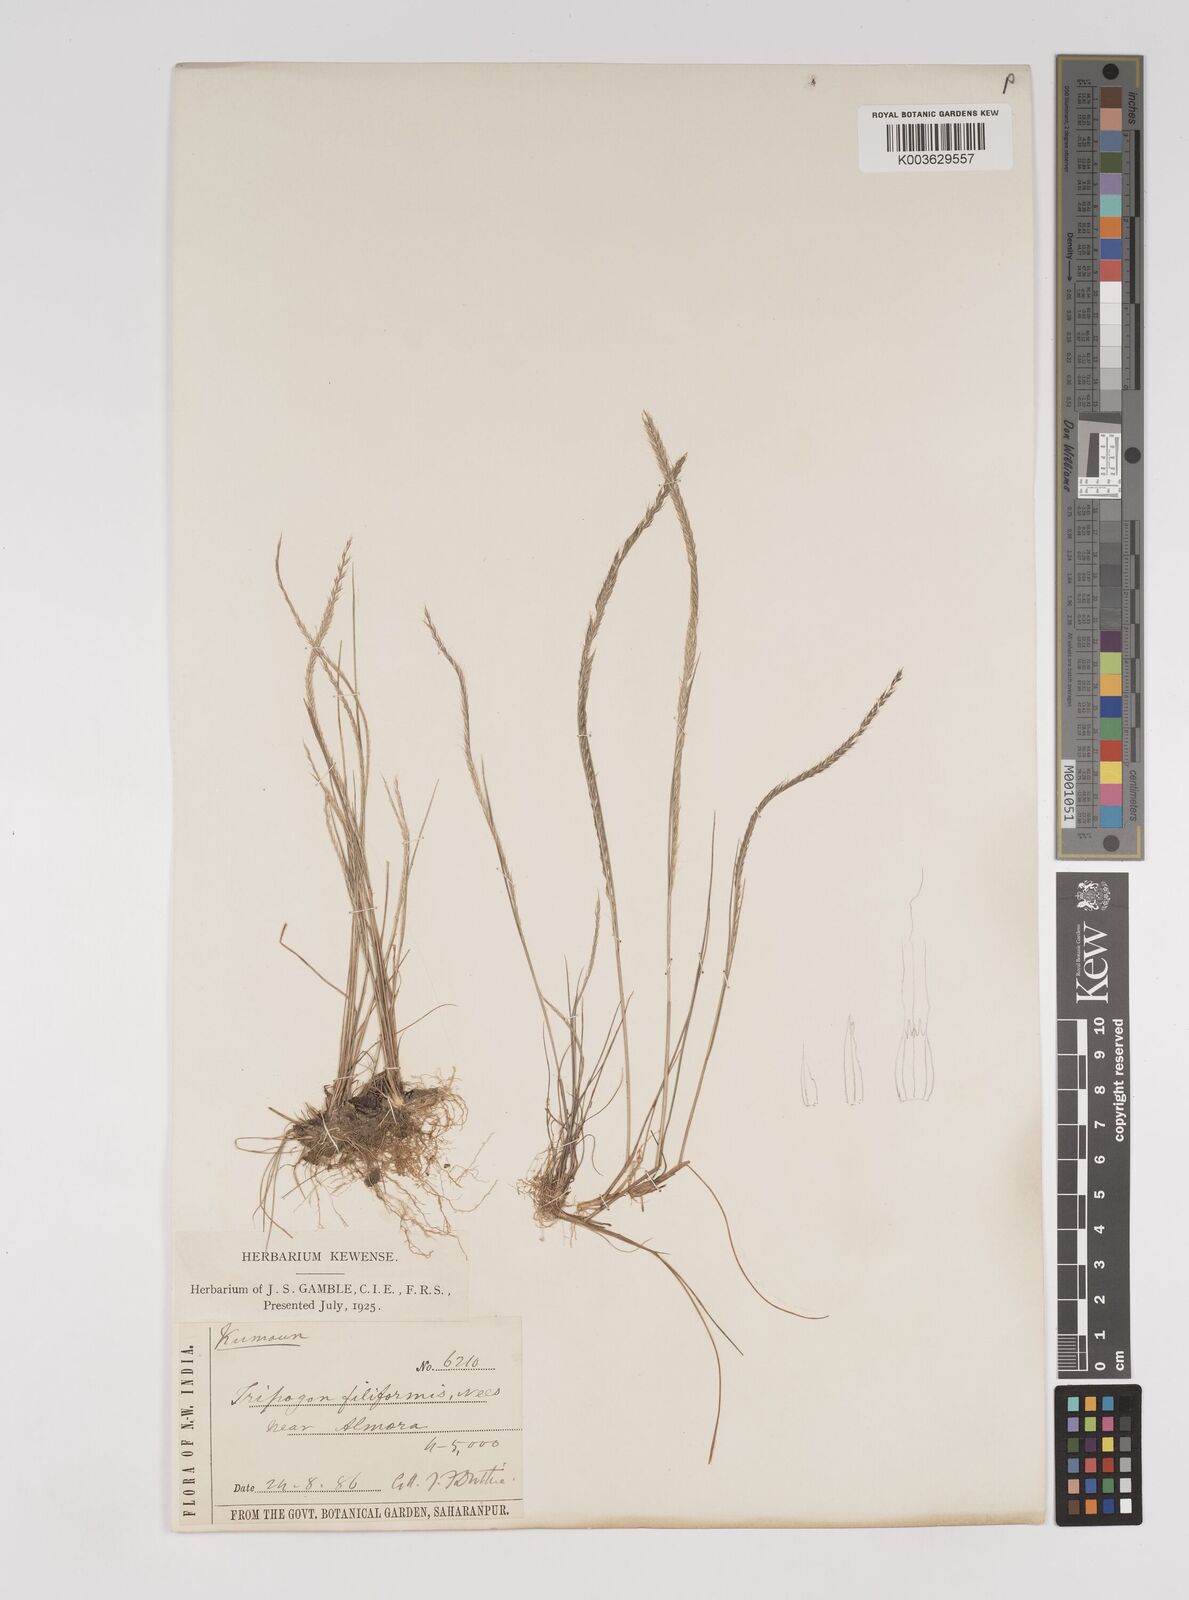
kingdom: Plantae
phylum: Tracheophyta
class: Liliopsida
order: Poales
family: Poaceae
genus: Tripogon
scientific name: Tripogon filiformis
